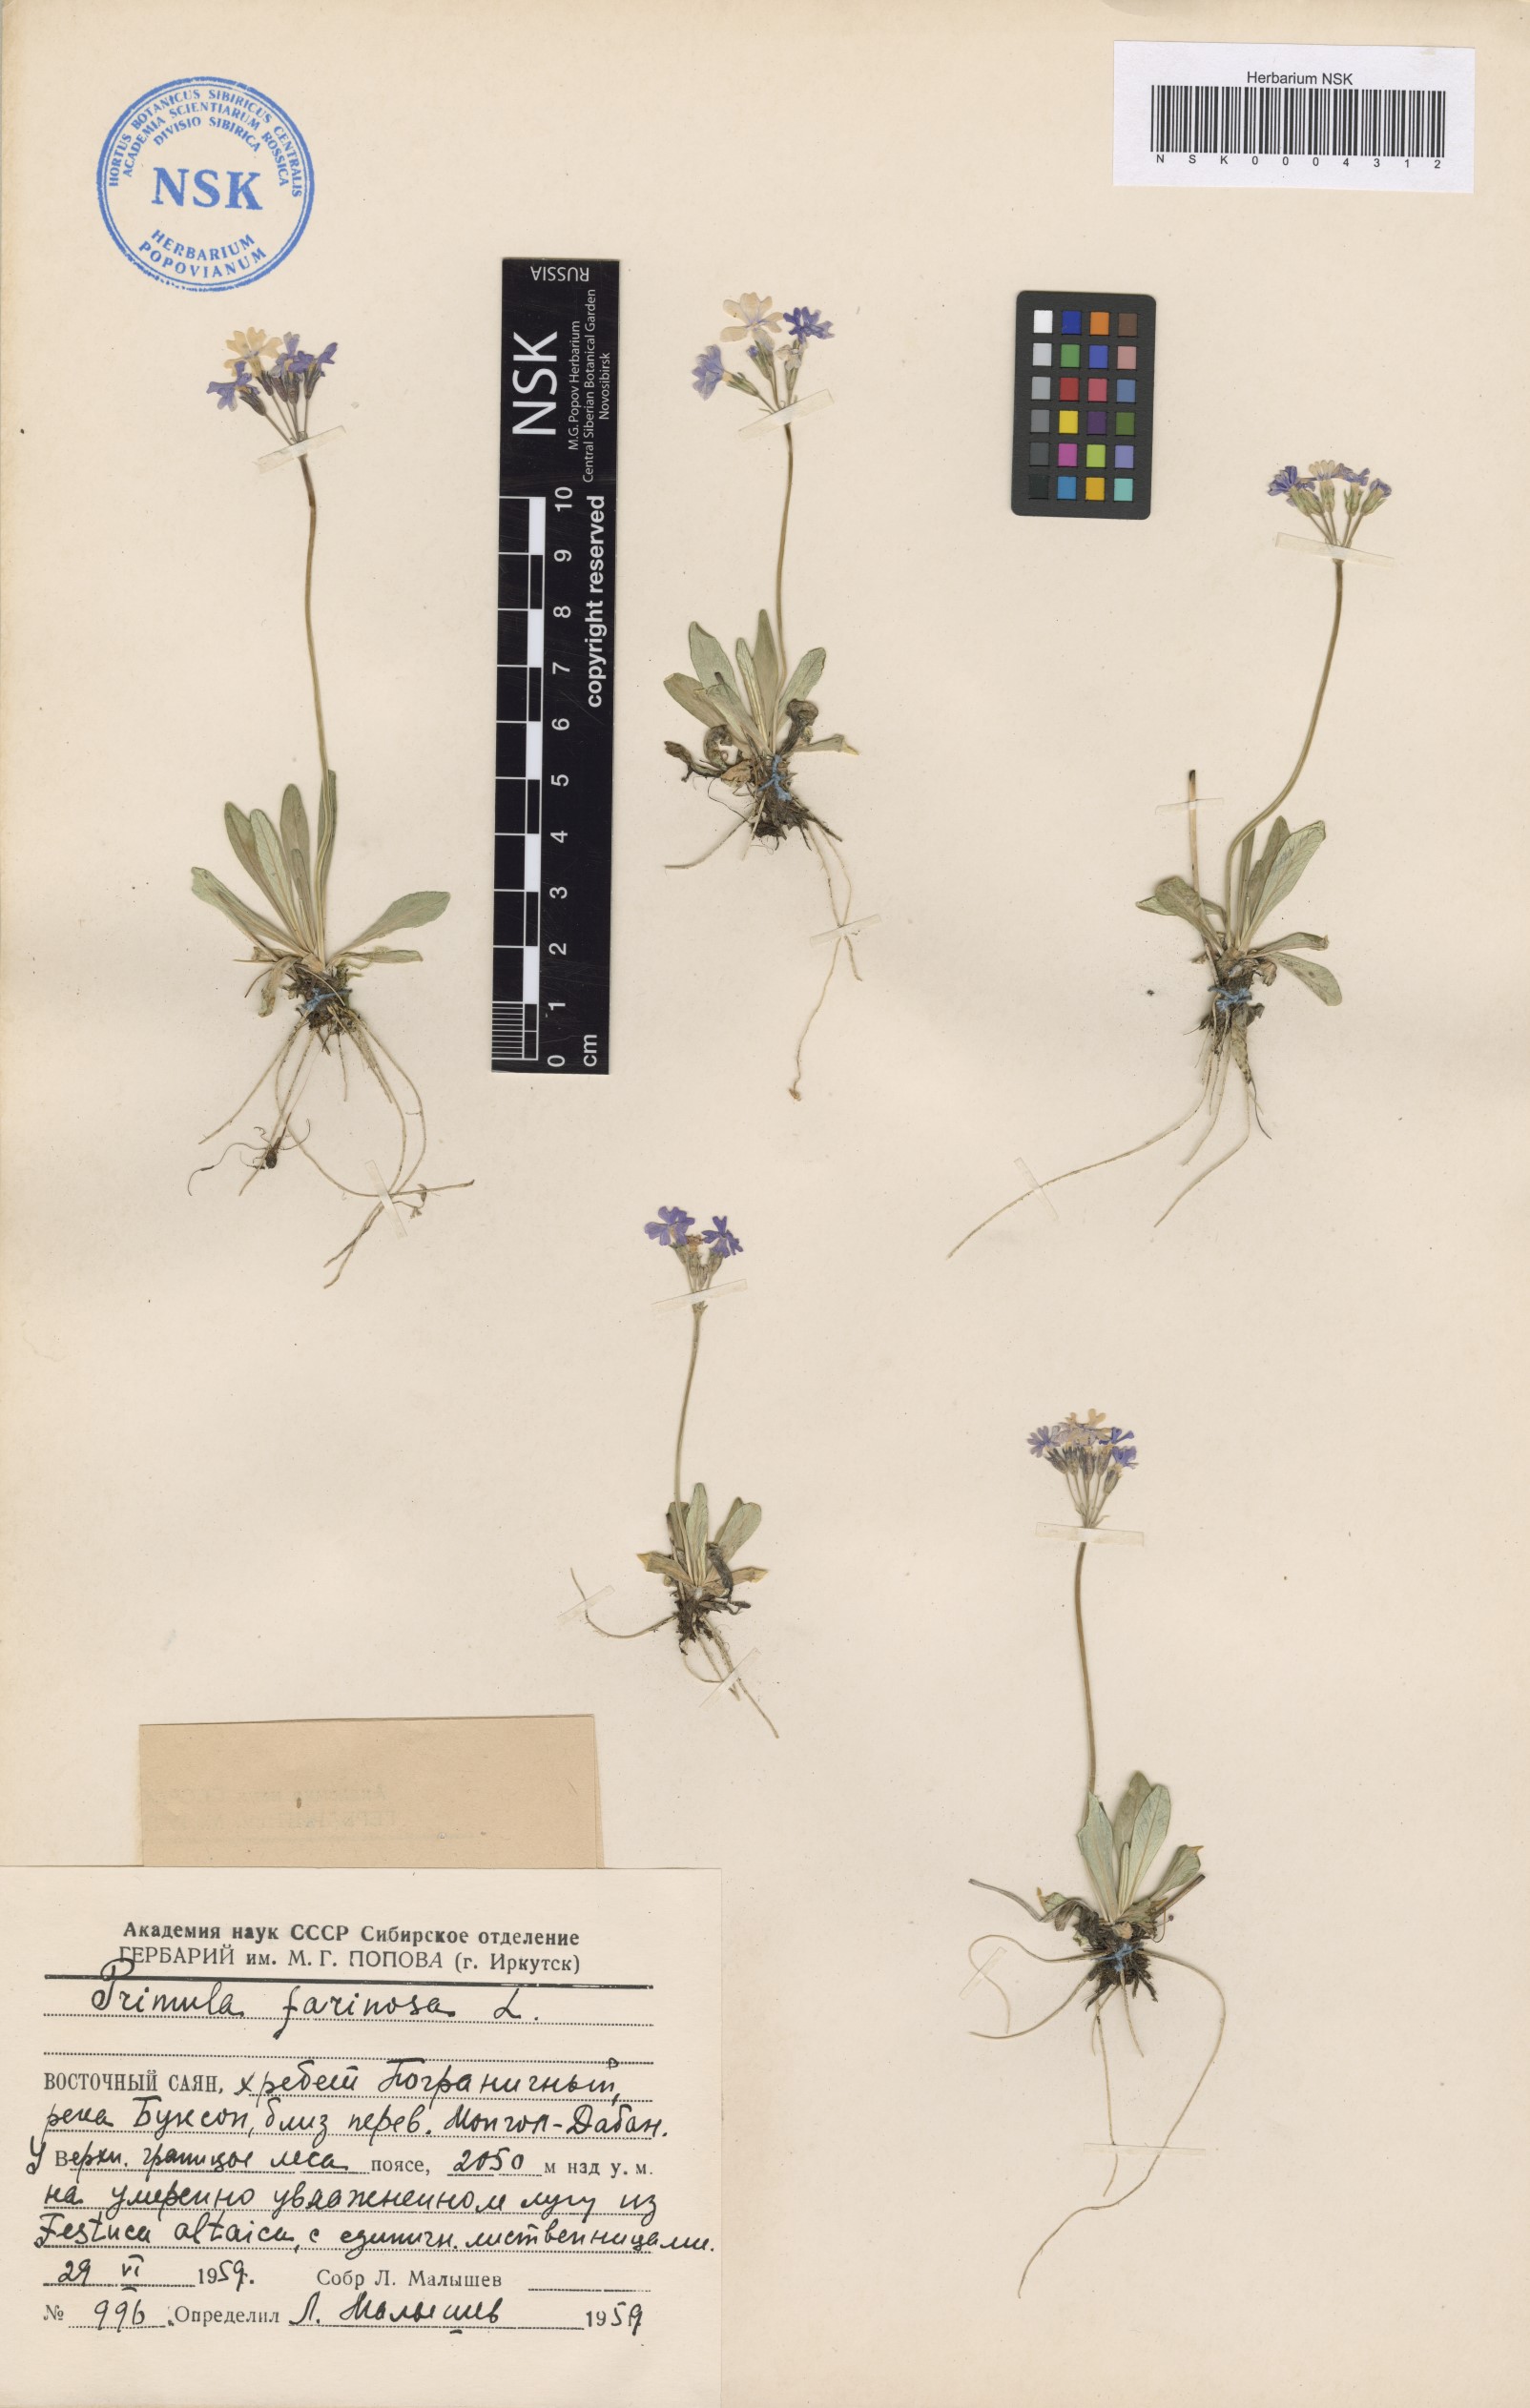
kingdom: Plantae
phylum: Tracheophyta
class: Magnoliopsida
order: Ericales
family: Primulaceae
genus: Primula
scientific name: Primula farinosa
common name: Bird's-eye primrose
